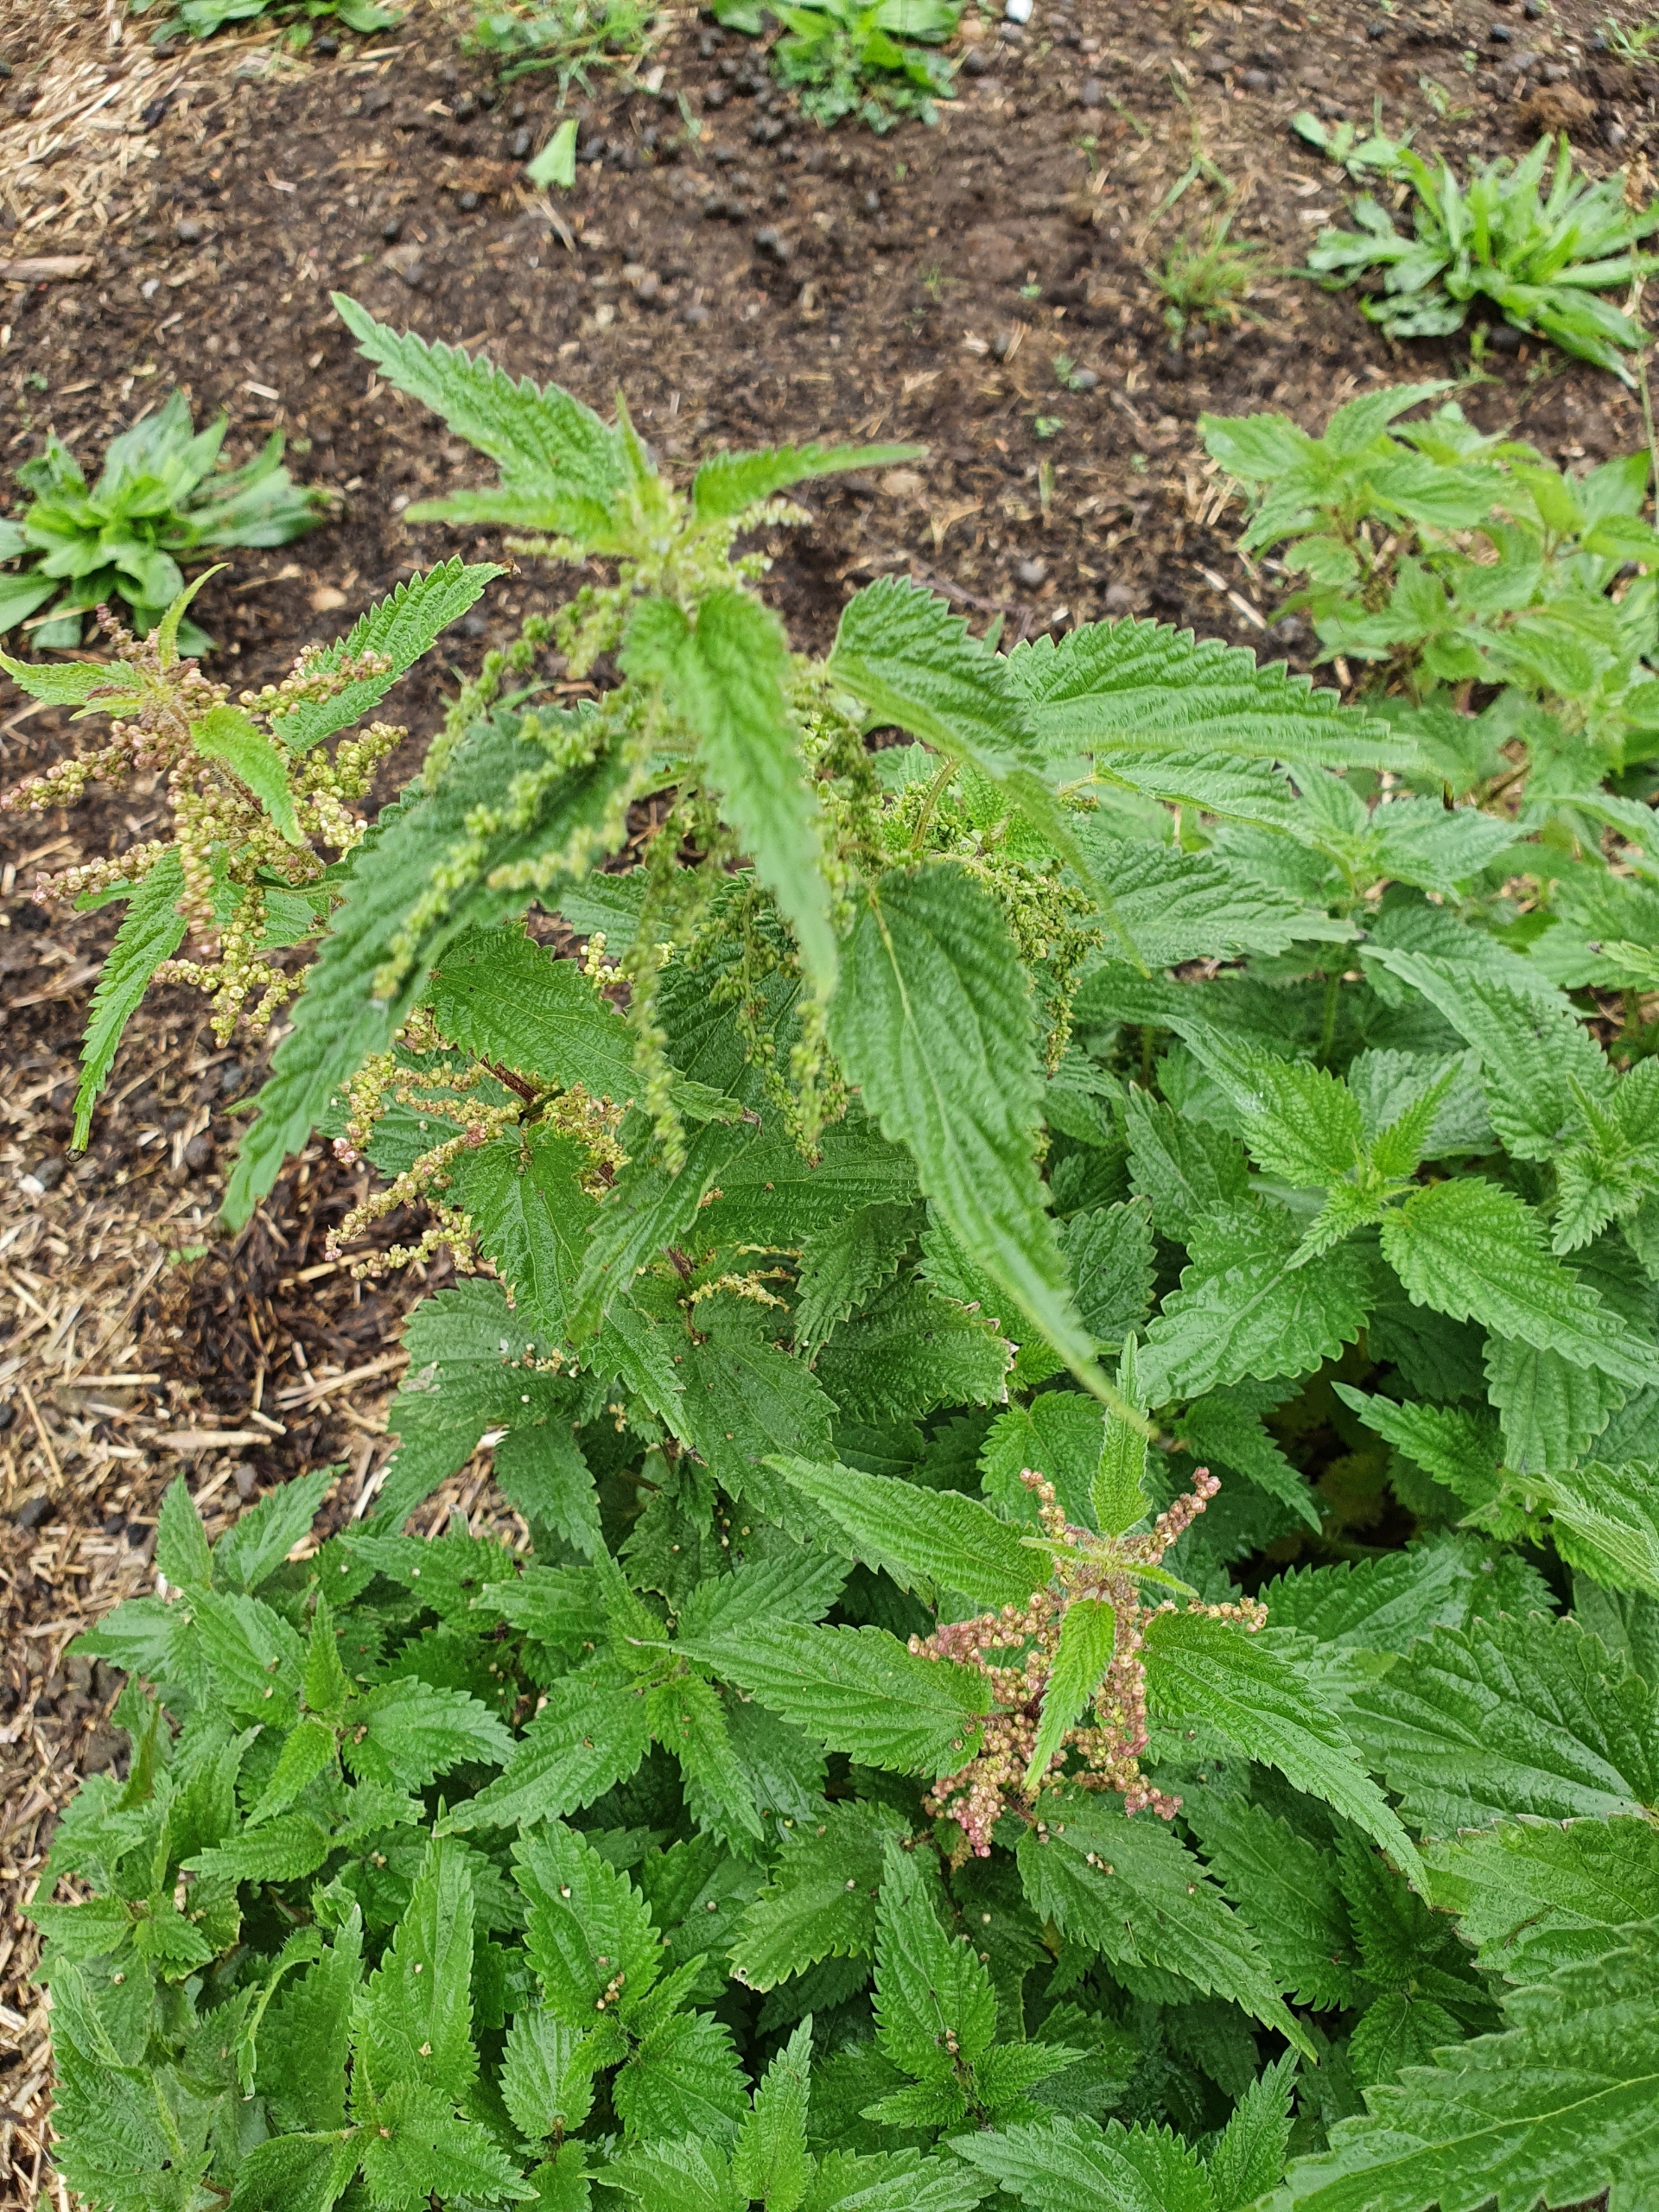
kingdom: Plantae
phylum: Tracheophyta
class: Magnoliopsida
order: Rosales
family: Urticaceae
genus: Urtica
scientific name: Urtica dioica
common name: Stor nælde
